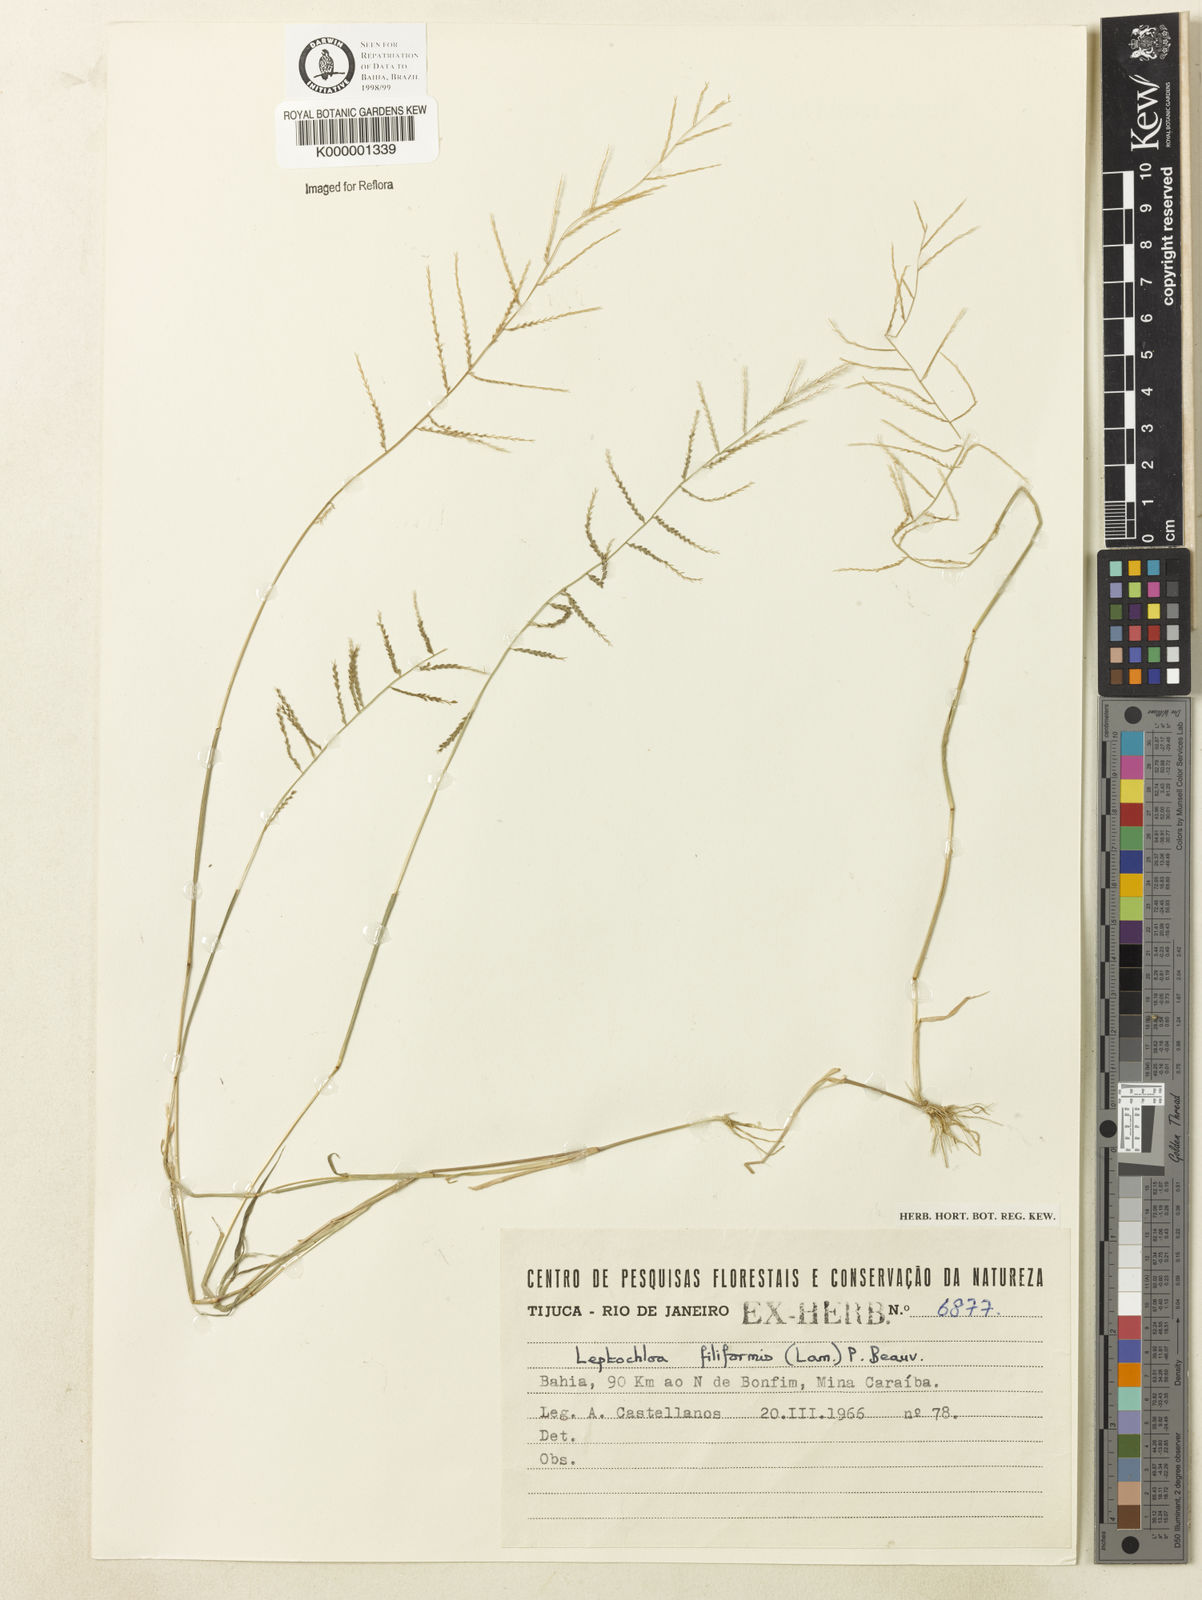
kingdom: Plantae
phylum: Tracheophyta
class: Liliopsida
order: Poales
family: Poaceae
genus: Leptochloa
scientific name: Leptochloa mucronata
